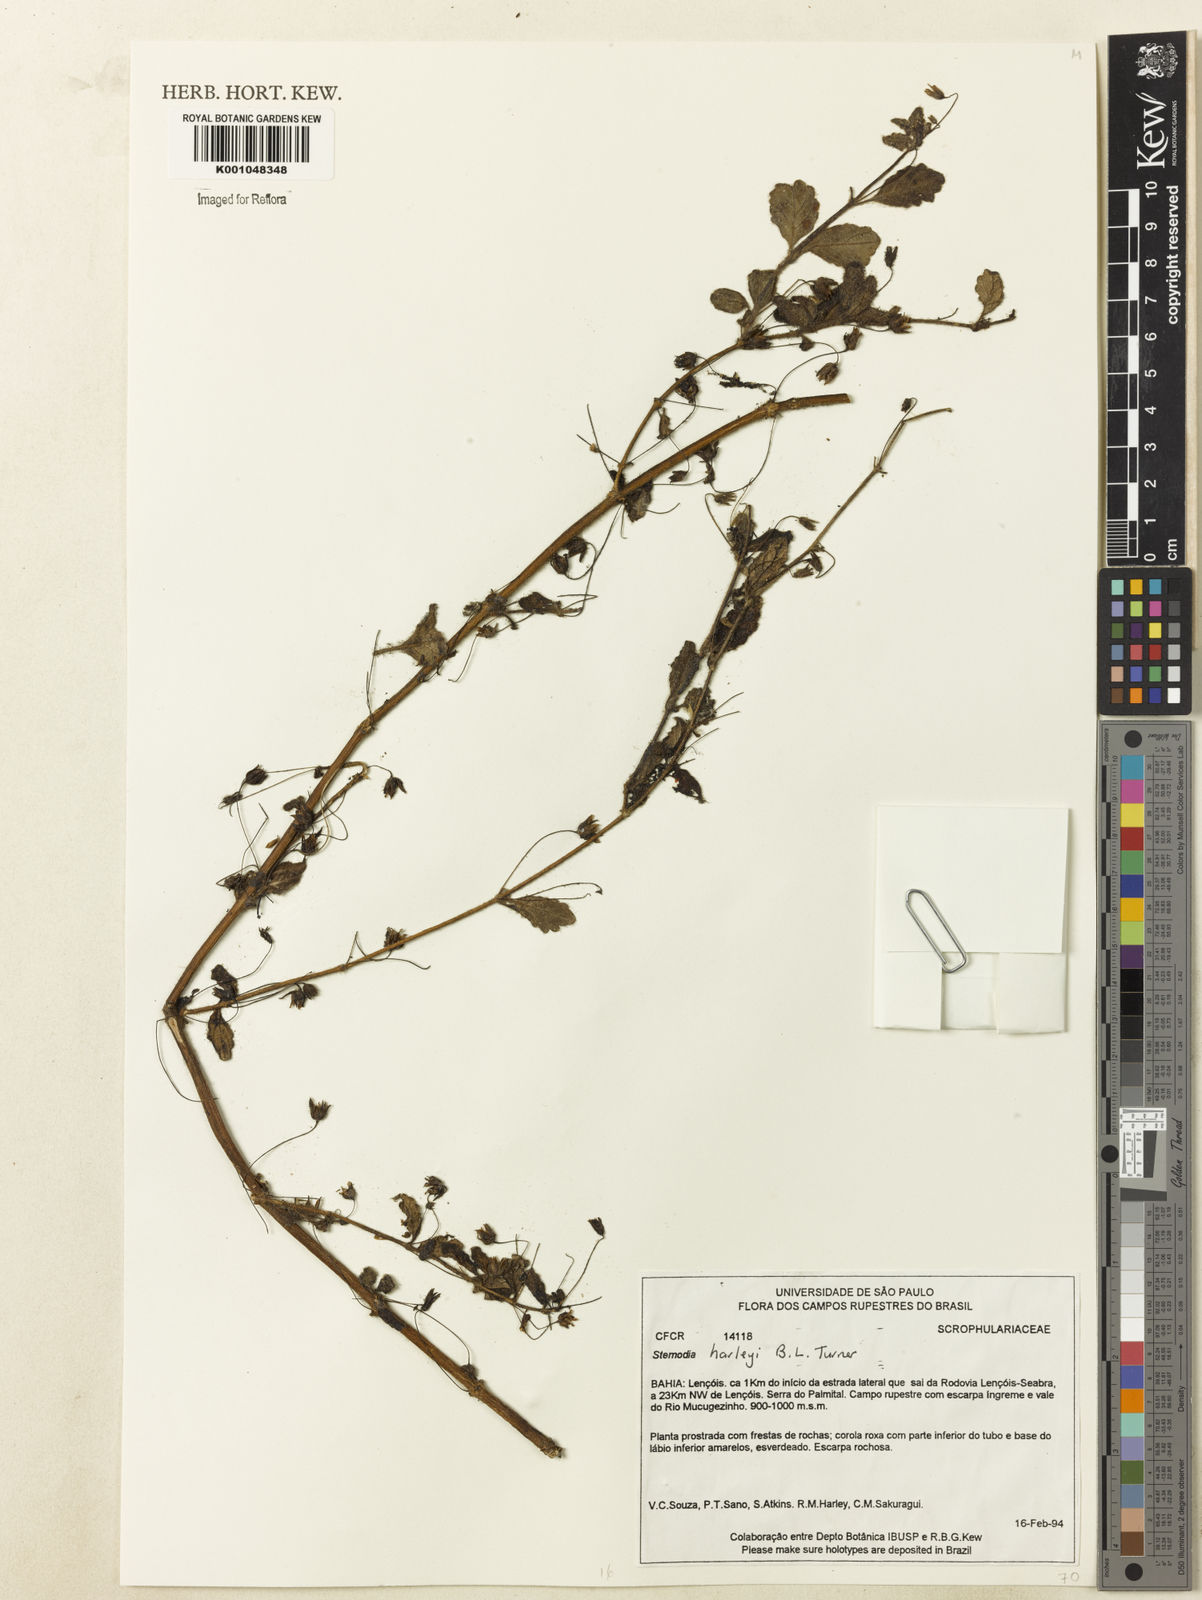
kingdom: Plantae
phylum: Tracheophyta
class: Magnoliopsida
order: Lamiales
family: Plantaginaceae
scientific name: Plantaginaceae
